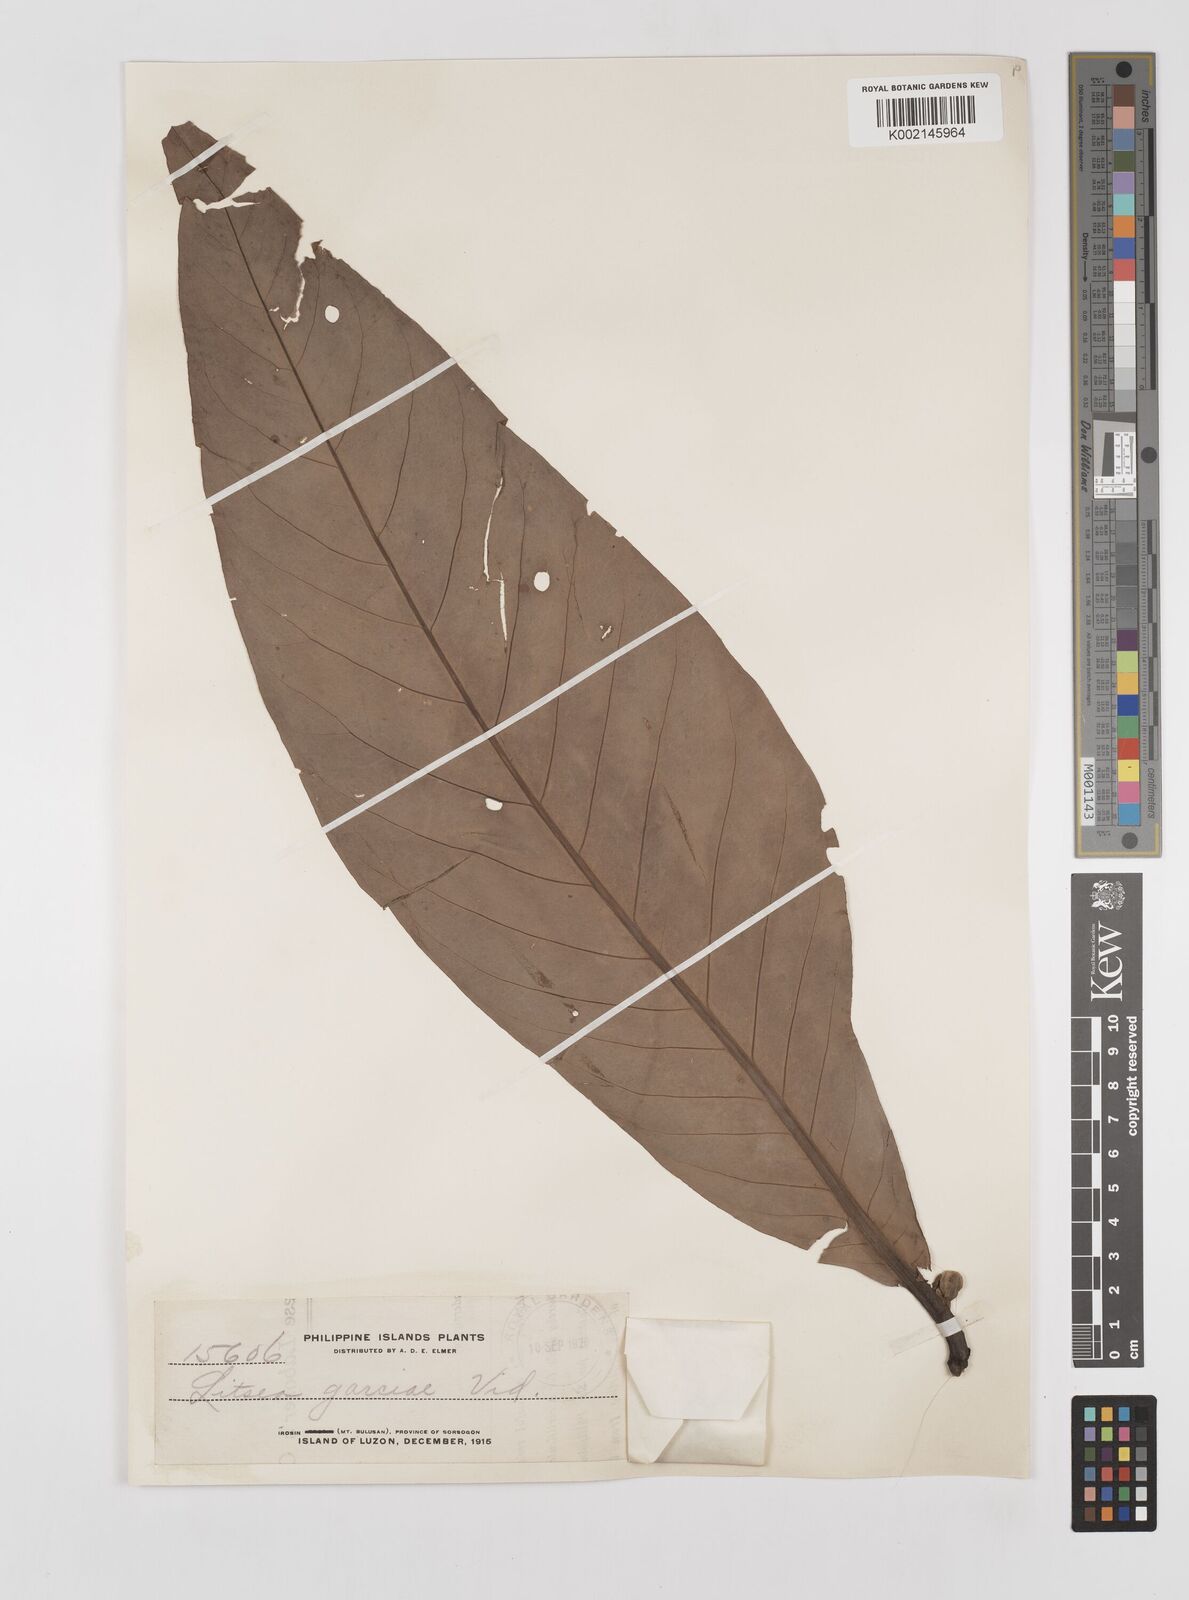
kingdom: Plantae
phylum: Tracheophyta
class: Magnoliopsida
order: Laurales
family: Lauraceae
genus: Litsea
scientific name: Litsea garciae
